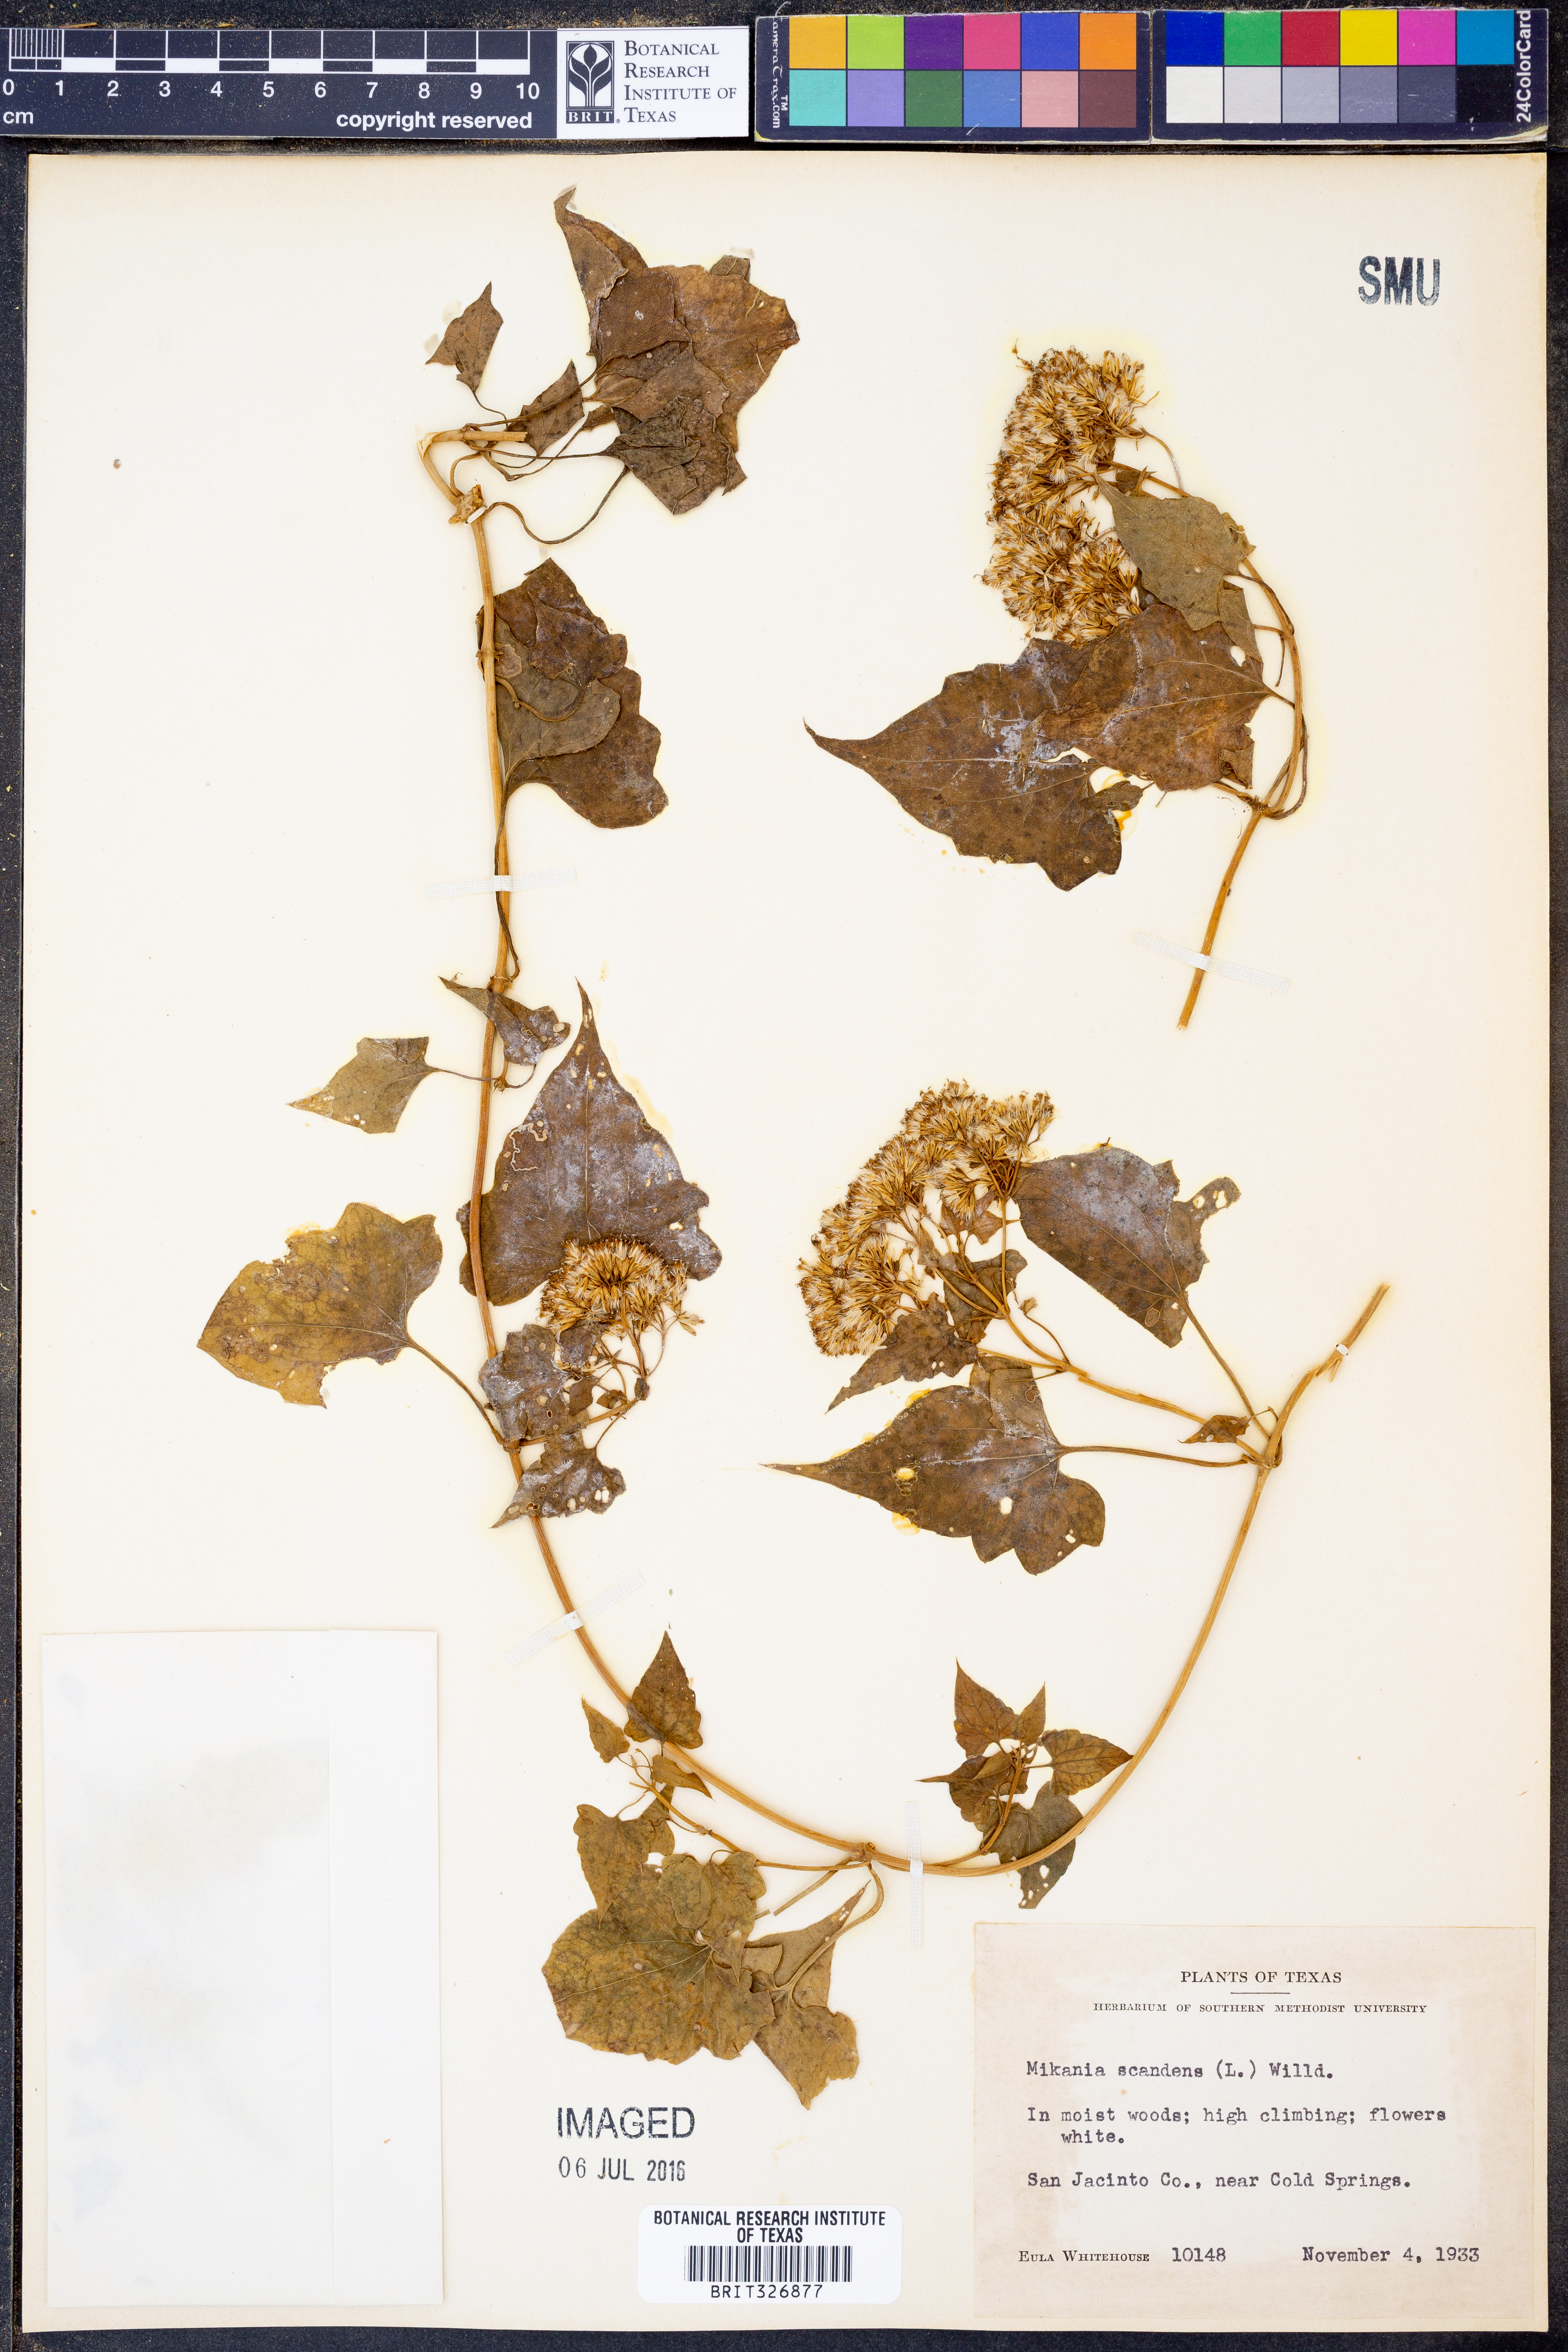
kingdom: Plantae
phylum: Tracheophyta
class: Magnoliopsida
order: Asterales
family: Asteraceae
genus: Mikania
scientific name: Mikania scandens
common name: Climbing hempvine
